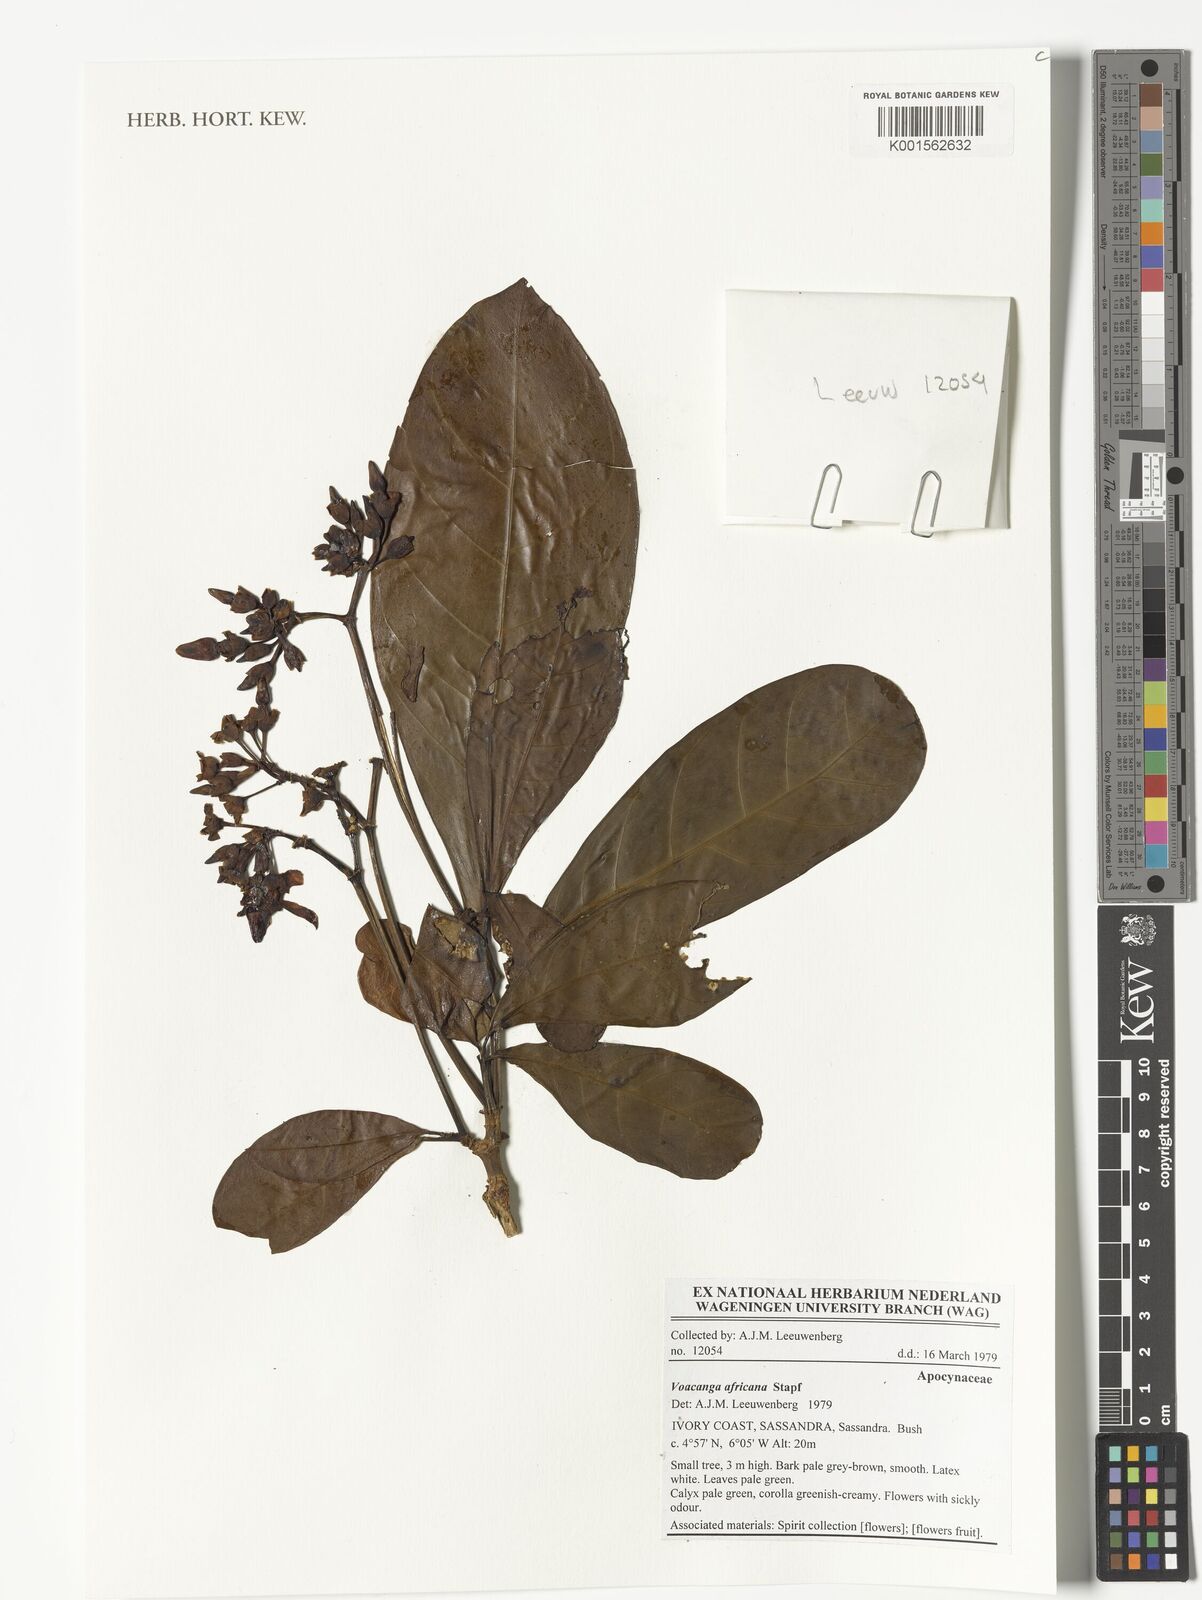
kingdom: Plantae
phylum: Tracheophyta
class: Magnoliopsida
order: Gentianales
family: Apocynaceae
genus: Voacanga
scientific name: Voacanga africana
